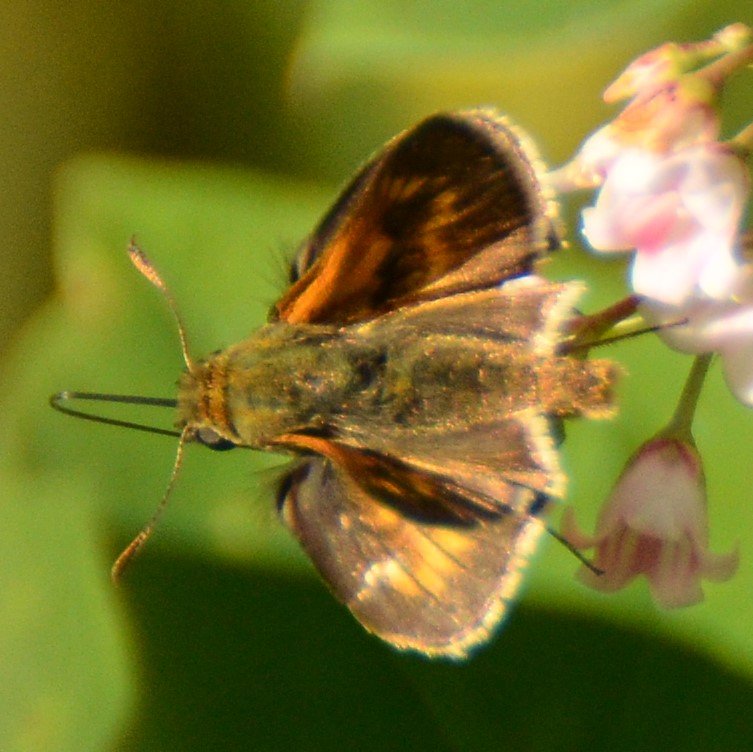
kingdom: Animalia
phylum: Arthropoda
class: Insecta
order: Lepidoptera
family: Hesperiidae
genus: Polites
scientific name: Polites
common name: Long Dash Skipper
